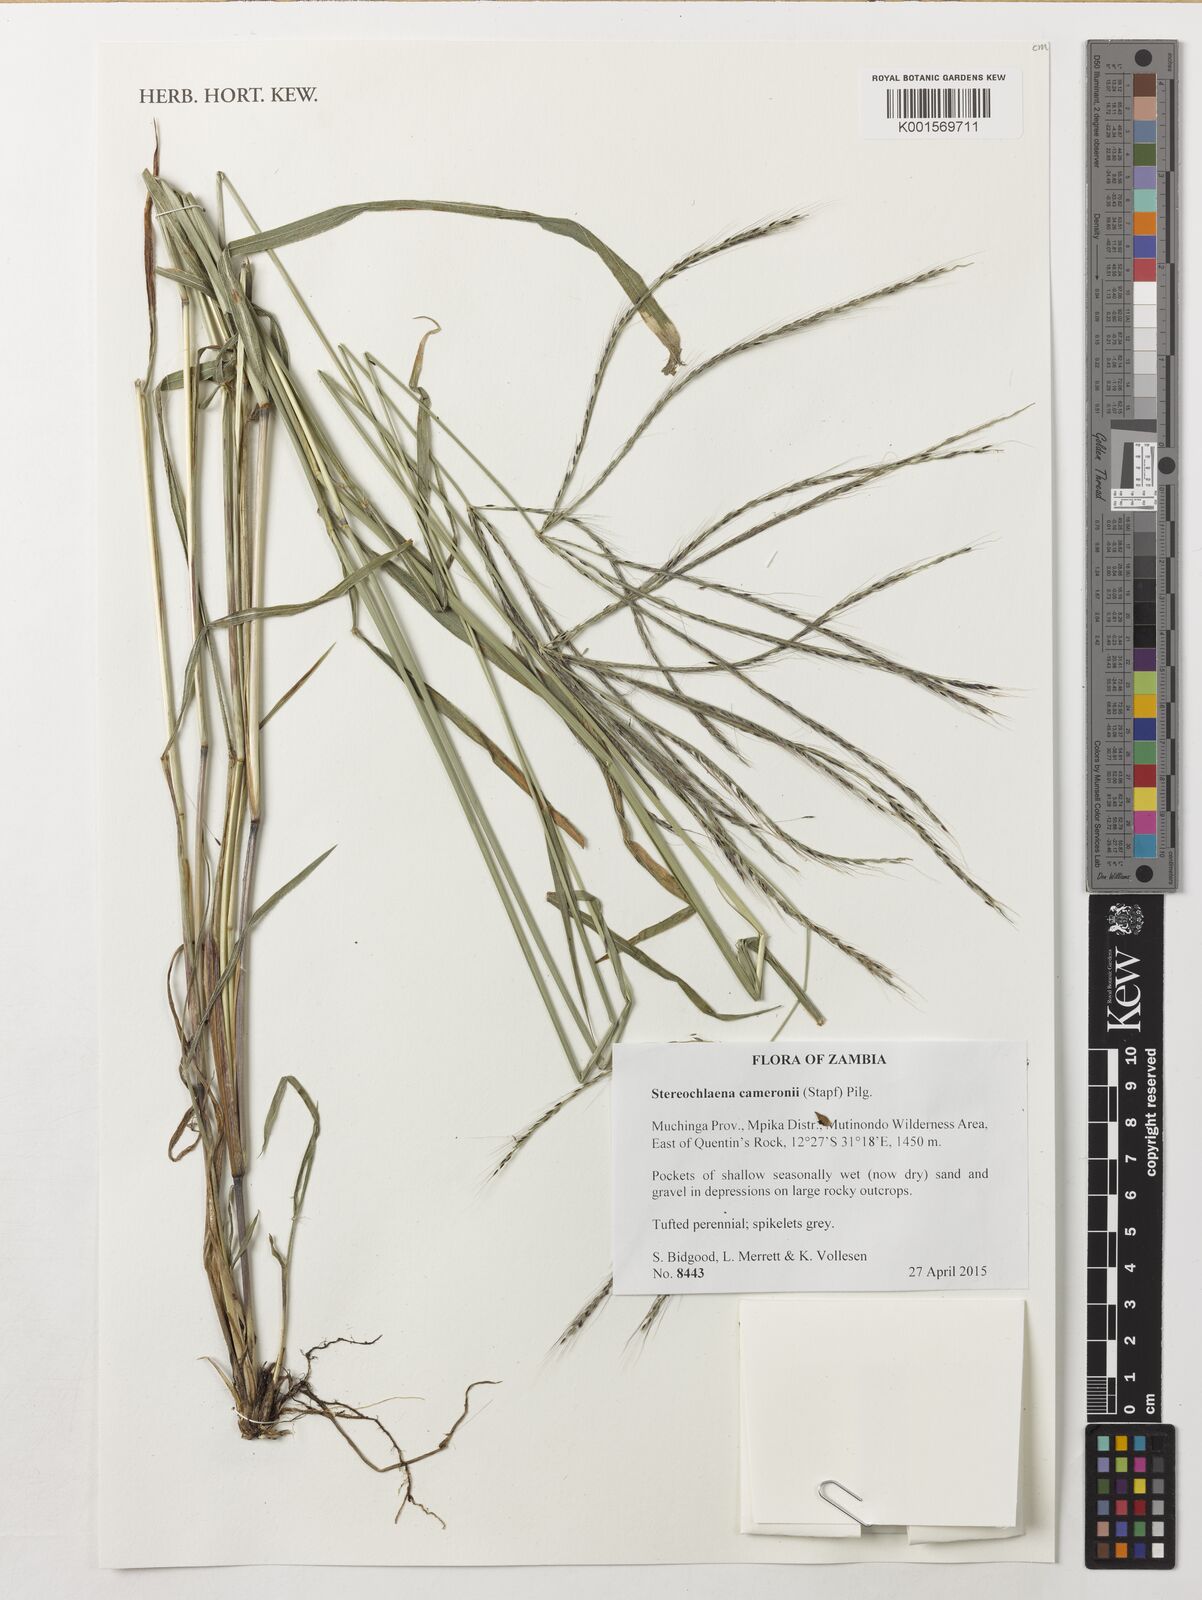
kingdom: Plantae
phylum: Tracheophyta
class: Liliopsida
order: Poales
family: Poaceae
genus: Stereochlaena
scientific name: Stereochlaena cameronii
